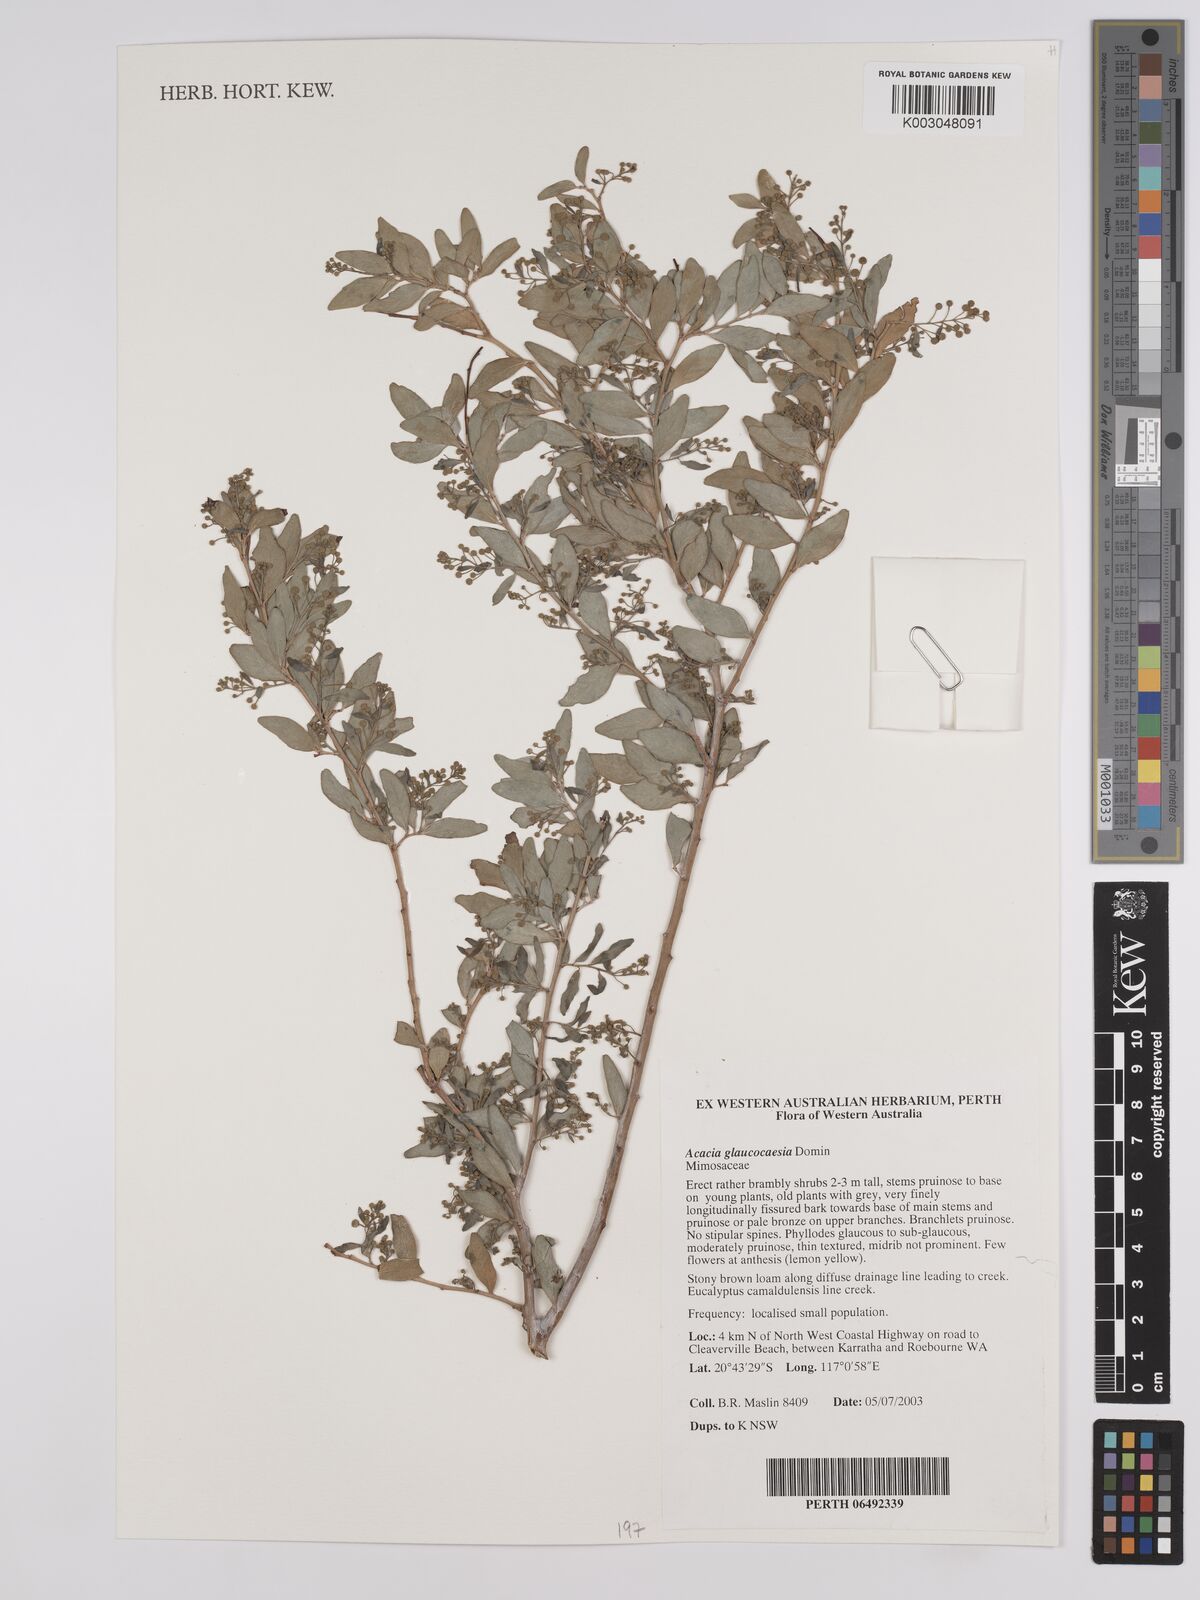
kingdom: Plantae
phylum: Tracheophyta
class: Magnoliopsida
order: Fabales
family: Fabaceae
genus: Acacia
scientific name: Acacia glaucocaesia
